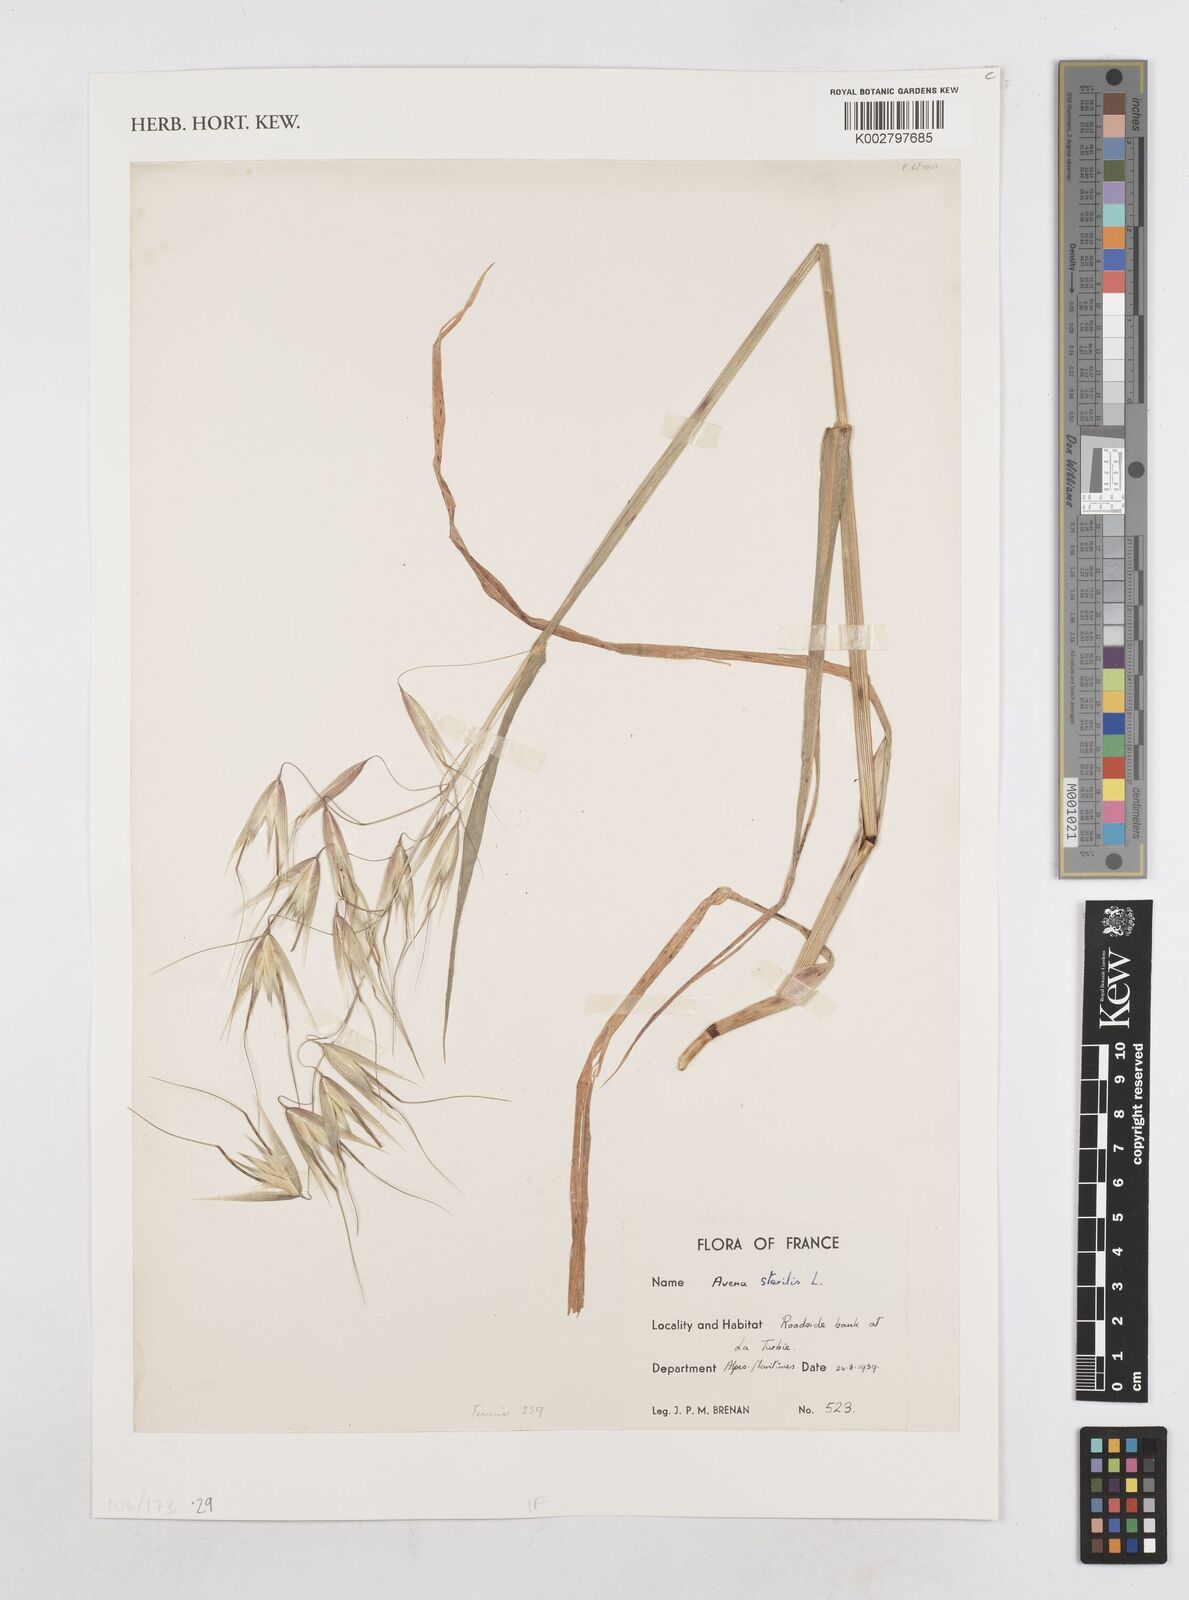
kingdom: Plantae
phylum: Tracheophyta
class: Liliopsida
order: Poales
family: Poaceae
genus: Avena
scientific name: Avena sterilis
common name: Animated oat
